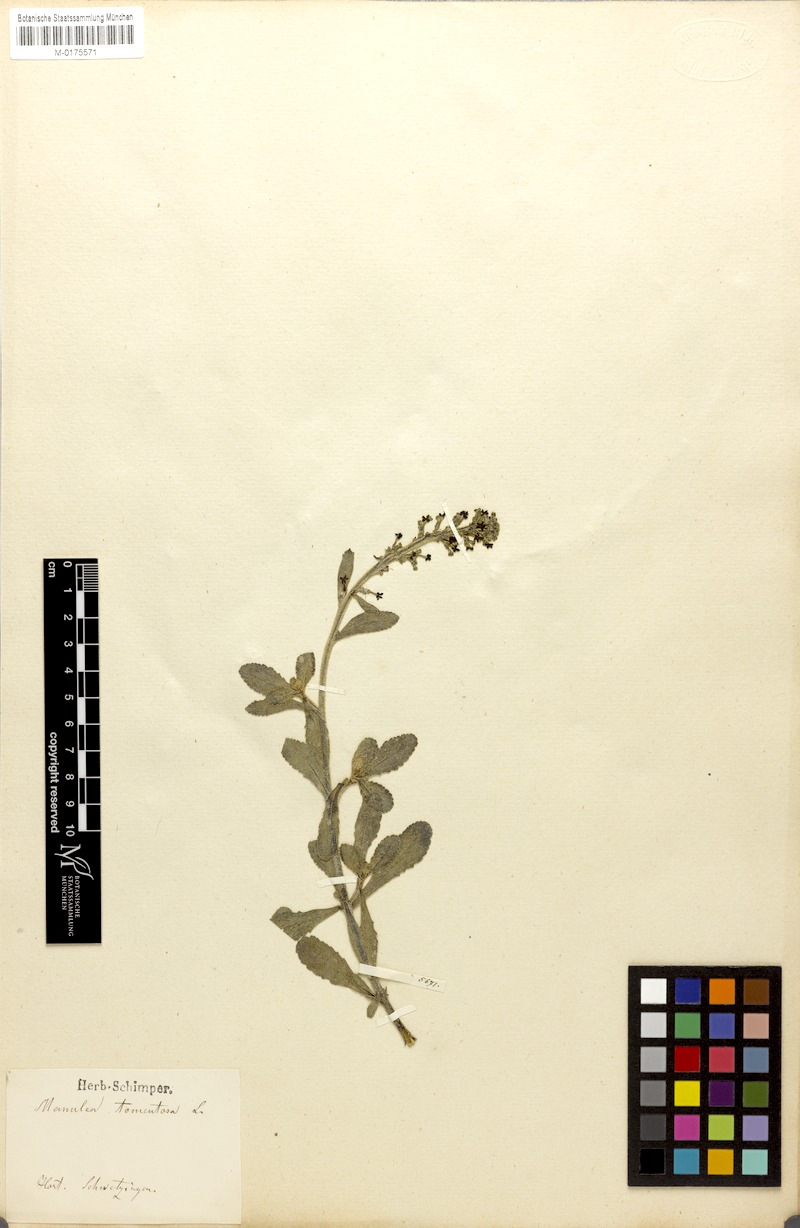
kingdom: Plantae
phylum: Tracheophyta
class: Magnoliopsida
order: Lamiales
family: Scrophulariaceae
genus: Manulea
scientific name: Manulea tomentosa
